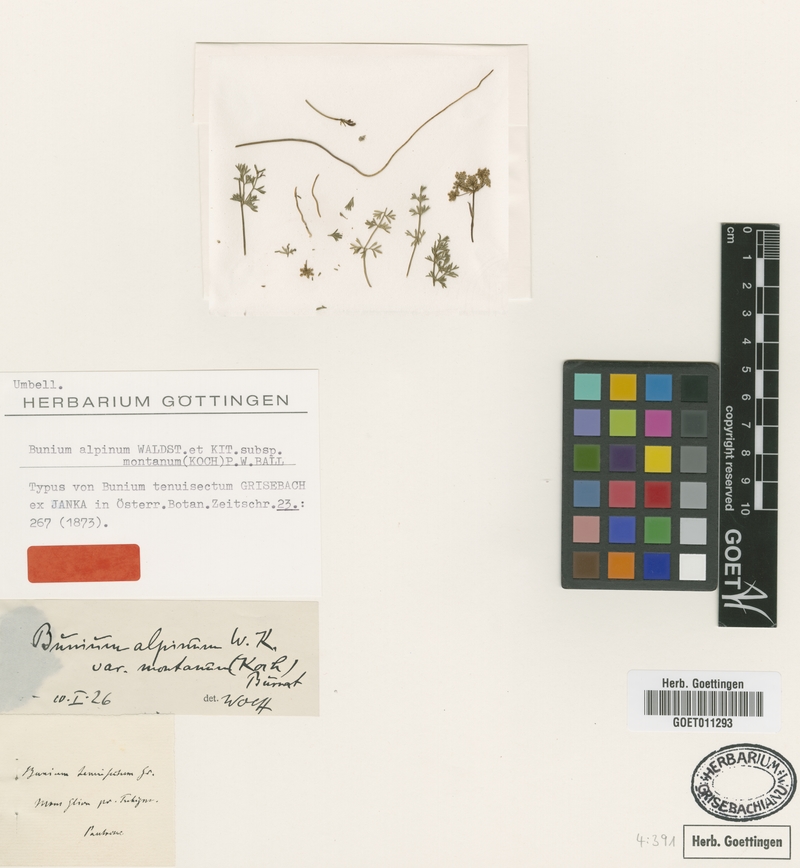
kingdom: Plantae
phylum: Tracheophyta
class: Magnoliopsida
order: Apiales
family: Apiaceae
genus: Bunium
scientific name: Bunium alpinum
